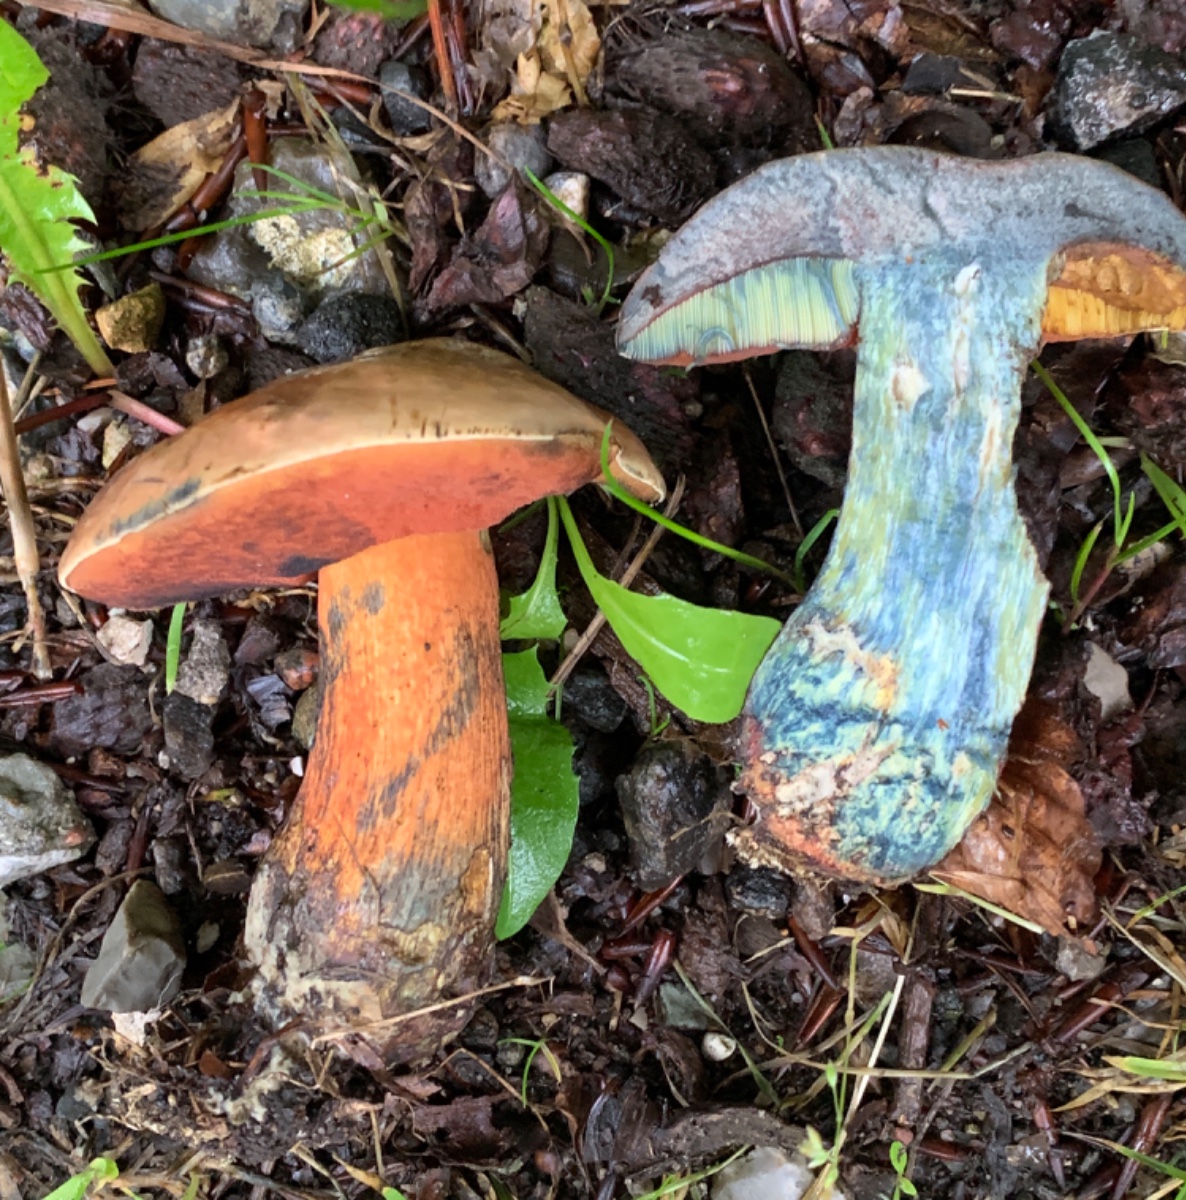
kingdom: Fungi
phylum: Basidiomycota
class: Agaricomycetes
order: Boletales
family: Boletaceae
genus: Suillellus
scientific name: Suillellus luridus
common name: netstokket indigorørhat
